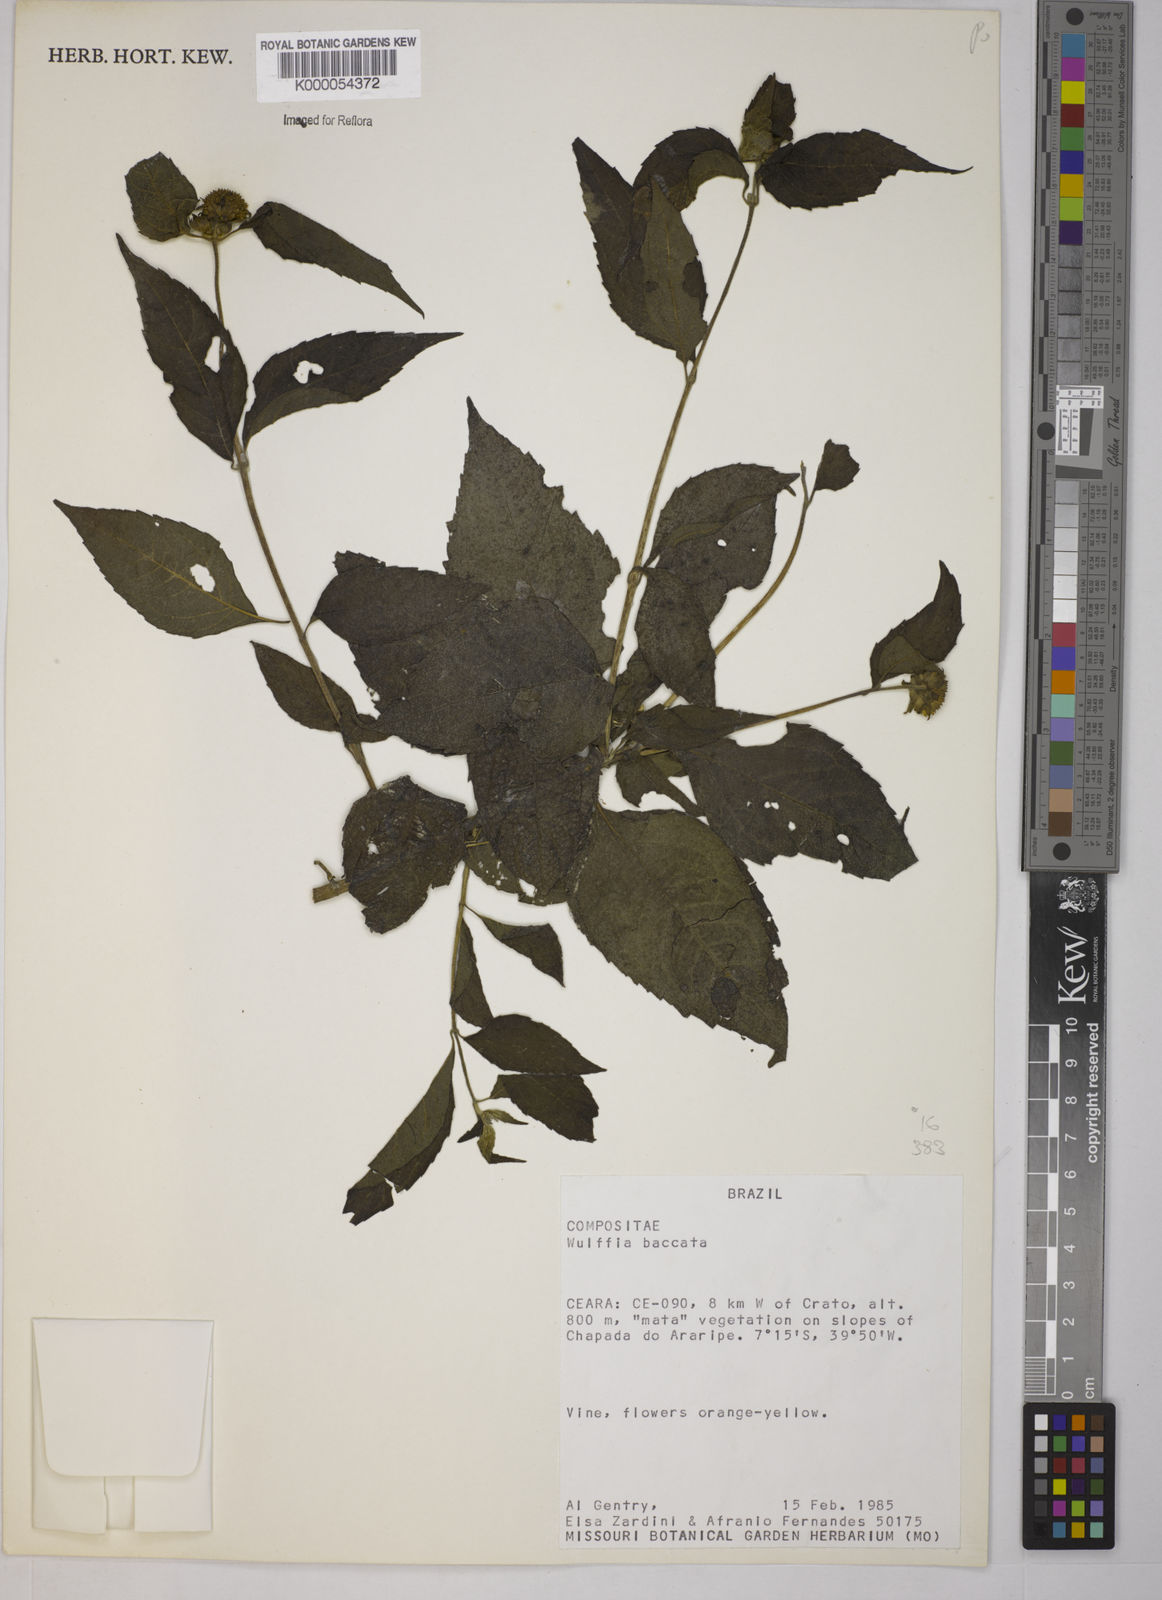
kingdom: Plantae
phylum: Tracheophyta
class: Magnoliopsida
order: Asterales
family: Asteraceae
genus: Tilesia
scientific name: Tilesia baccata
